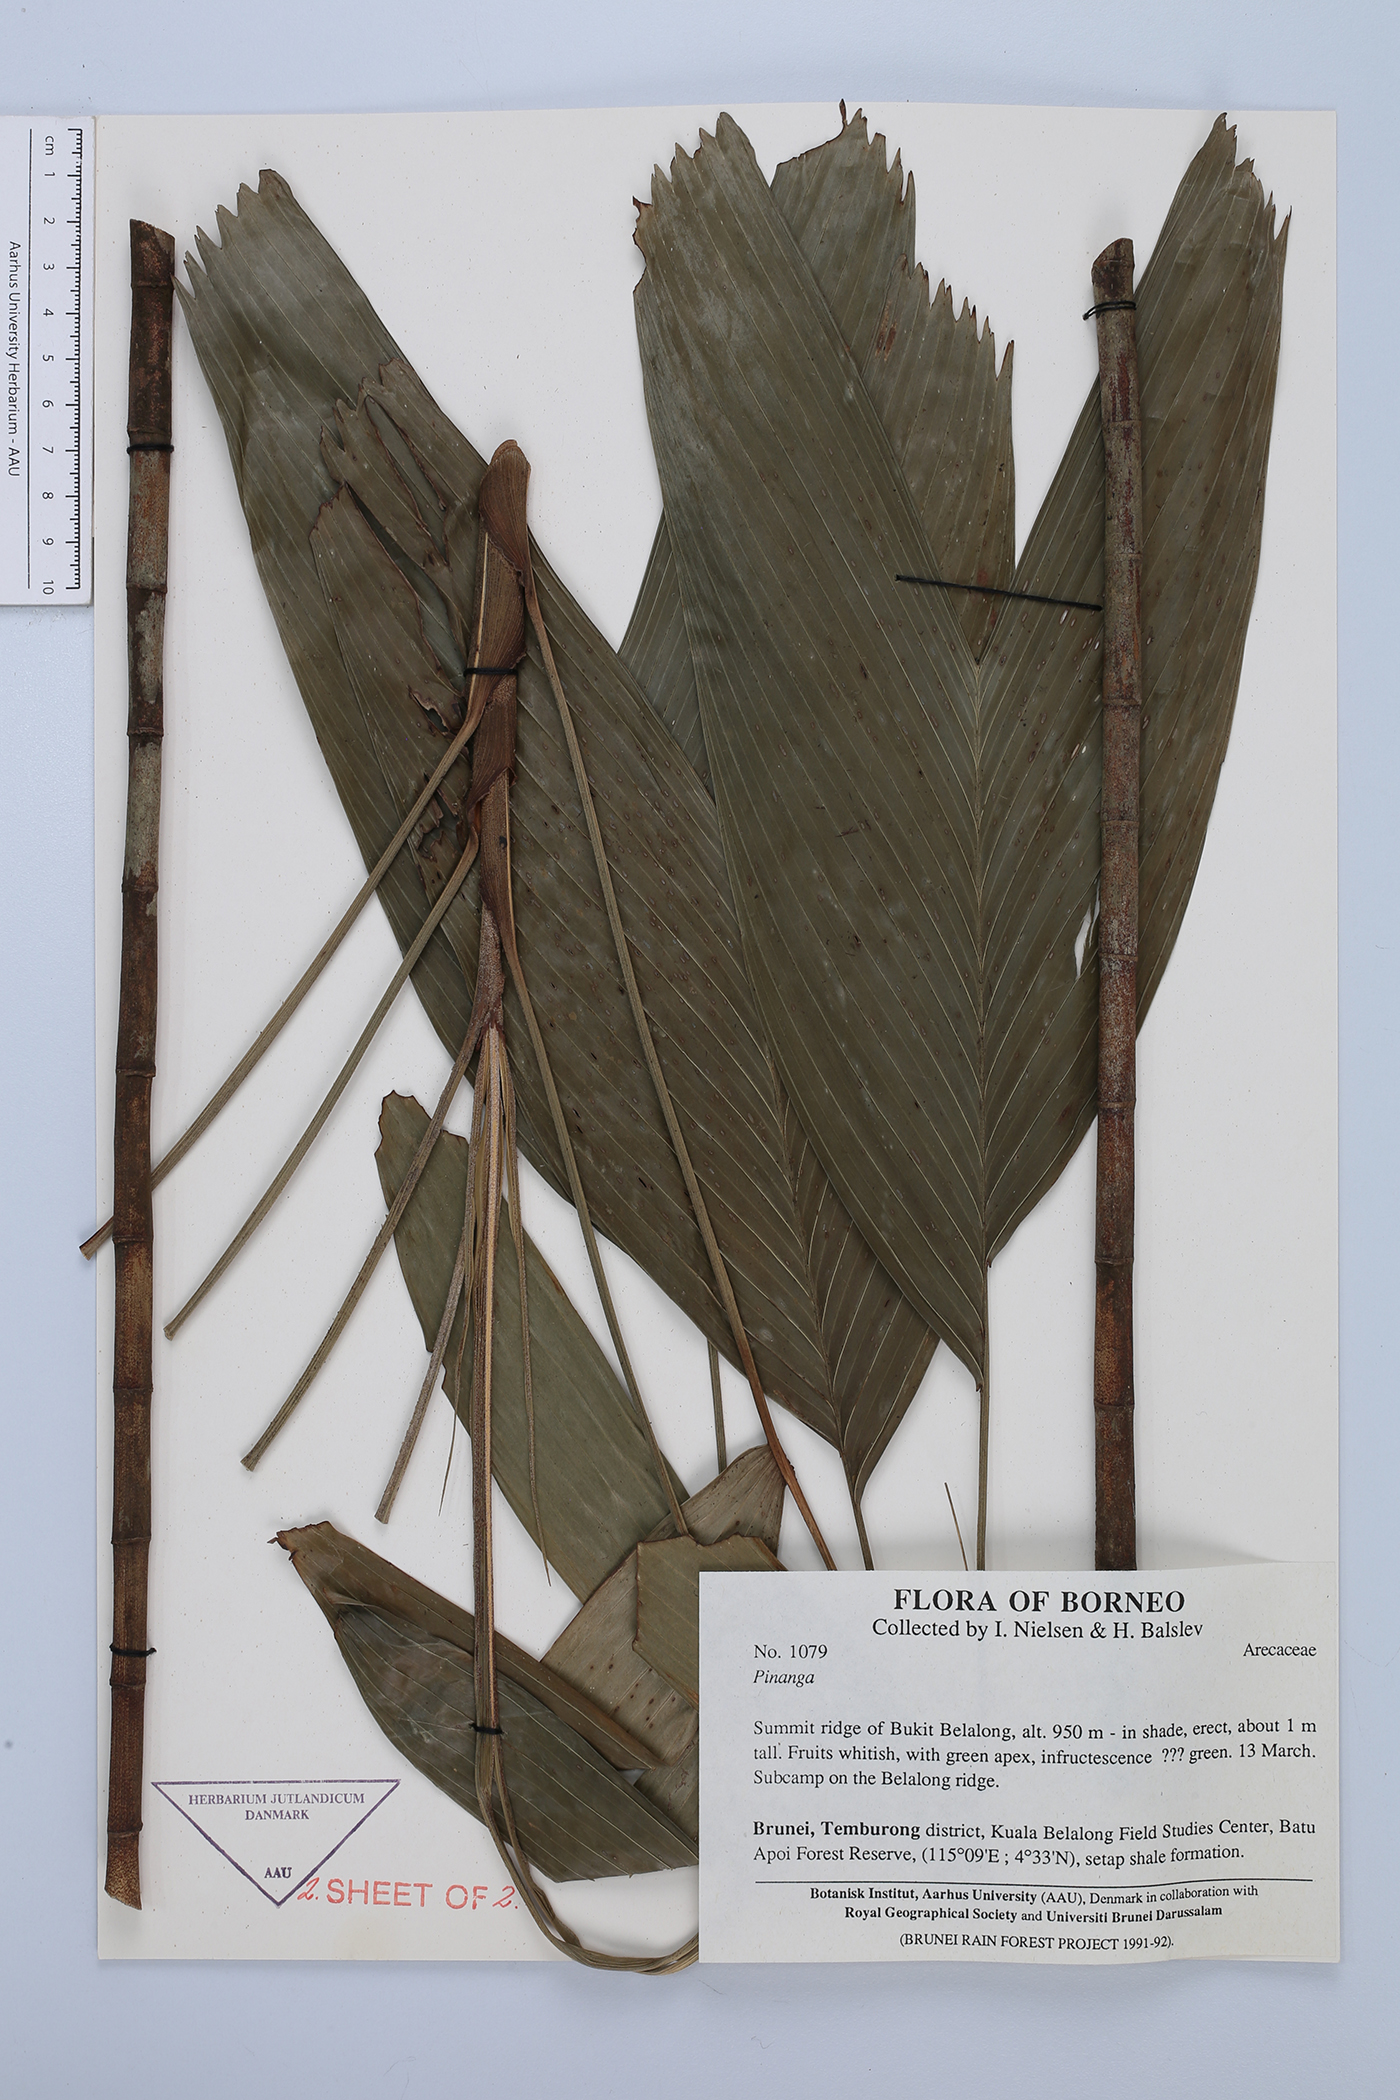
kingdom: Plantae
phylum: Tracheophyta
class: Liliopsida
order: Arecales
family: Arecaceae
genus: Pinanga
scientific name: Pinanga lepidota
